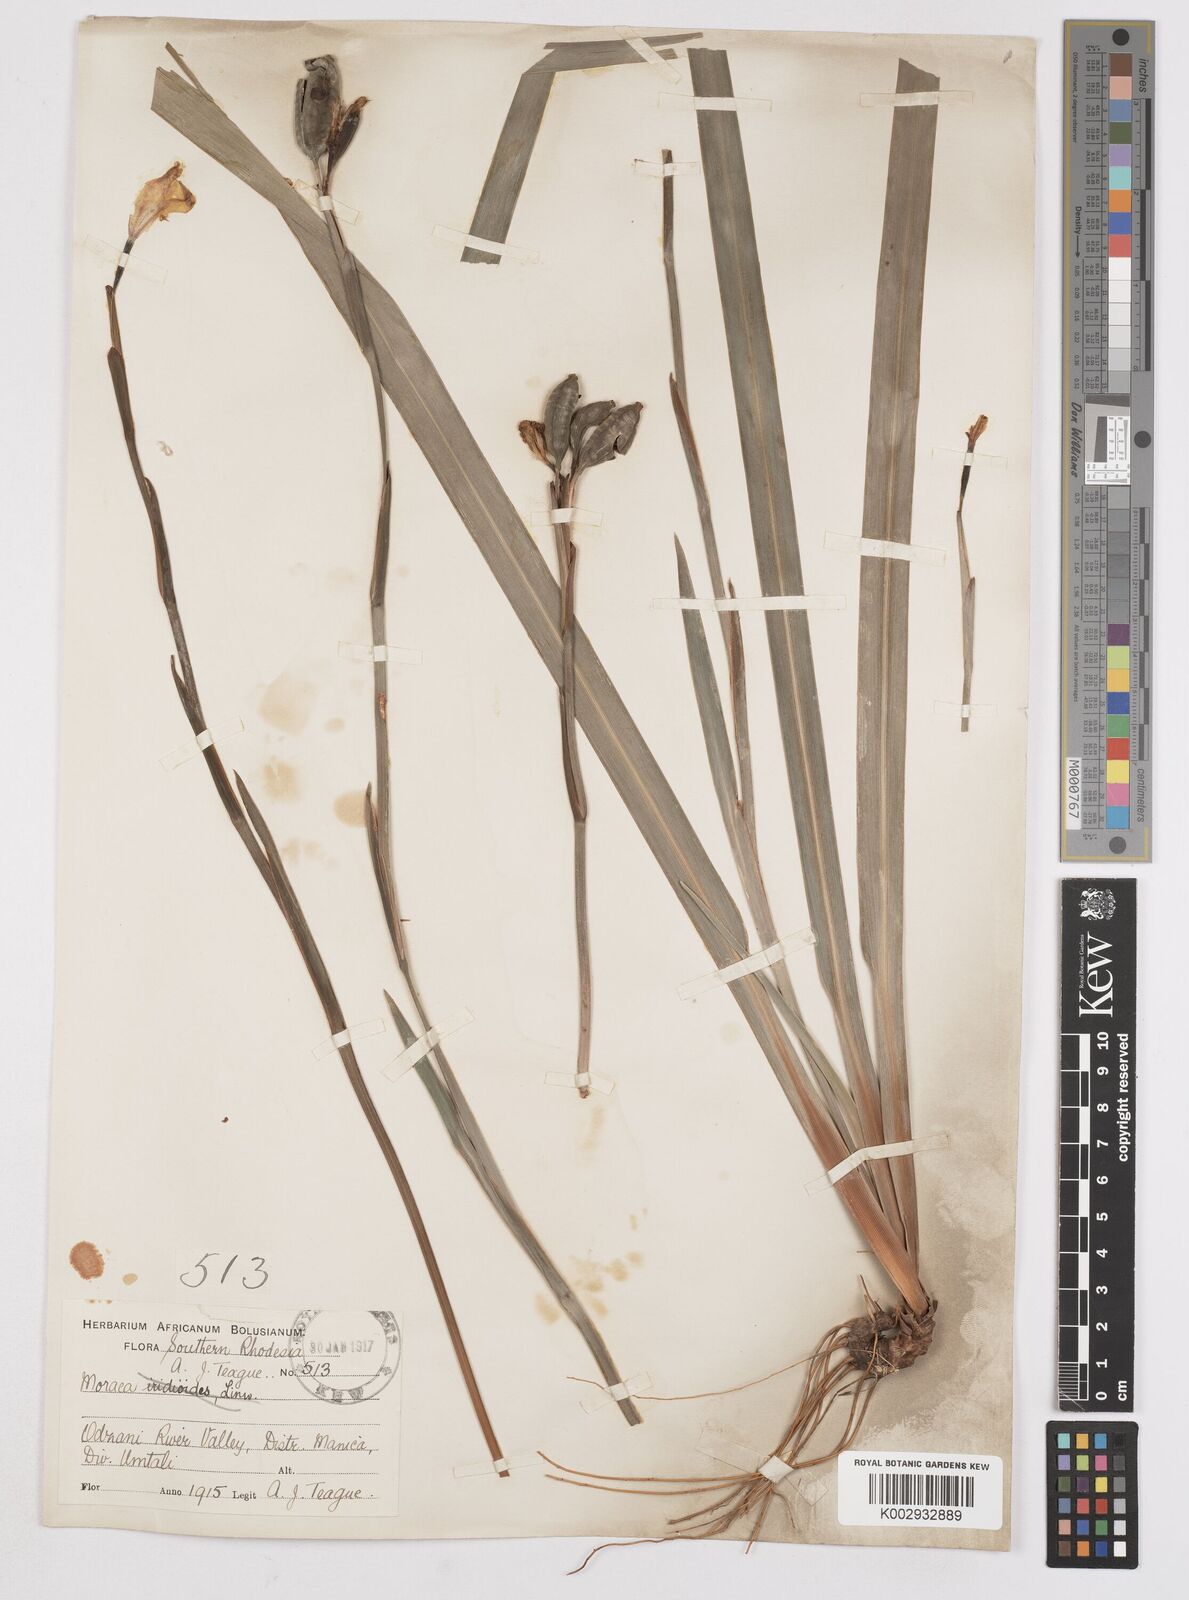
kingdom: Plantae
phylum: Tracheophyta
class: Liliopsida
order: Asparagales
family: Iridaceae
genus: Dietes
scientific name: Dietes iridioides
